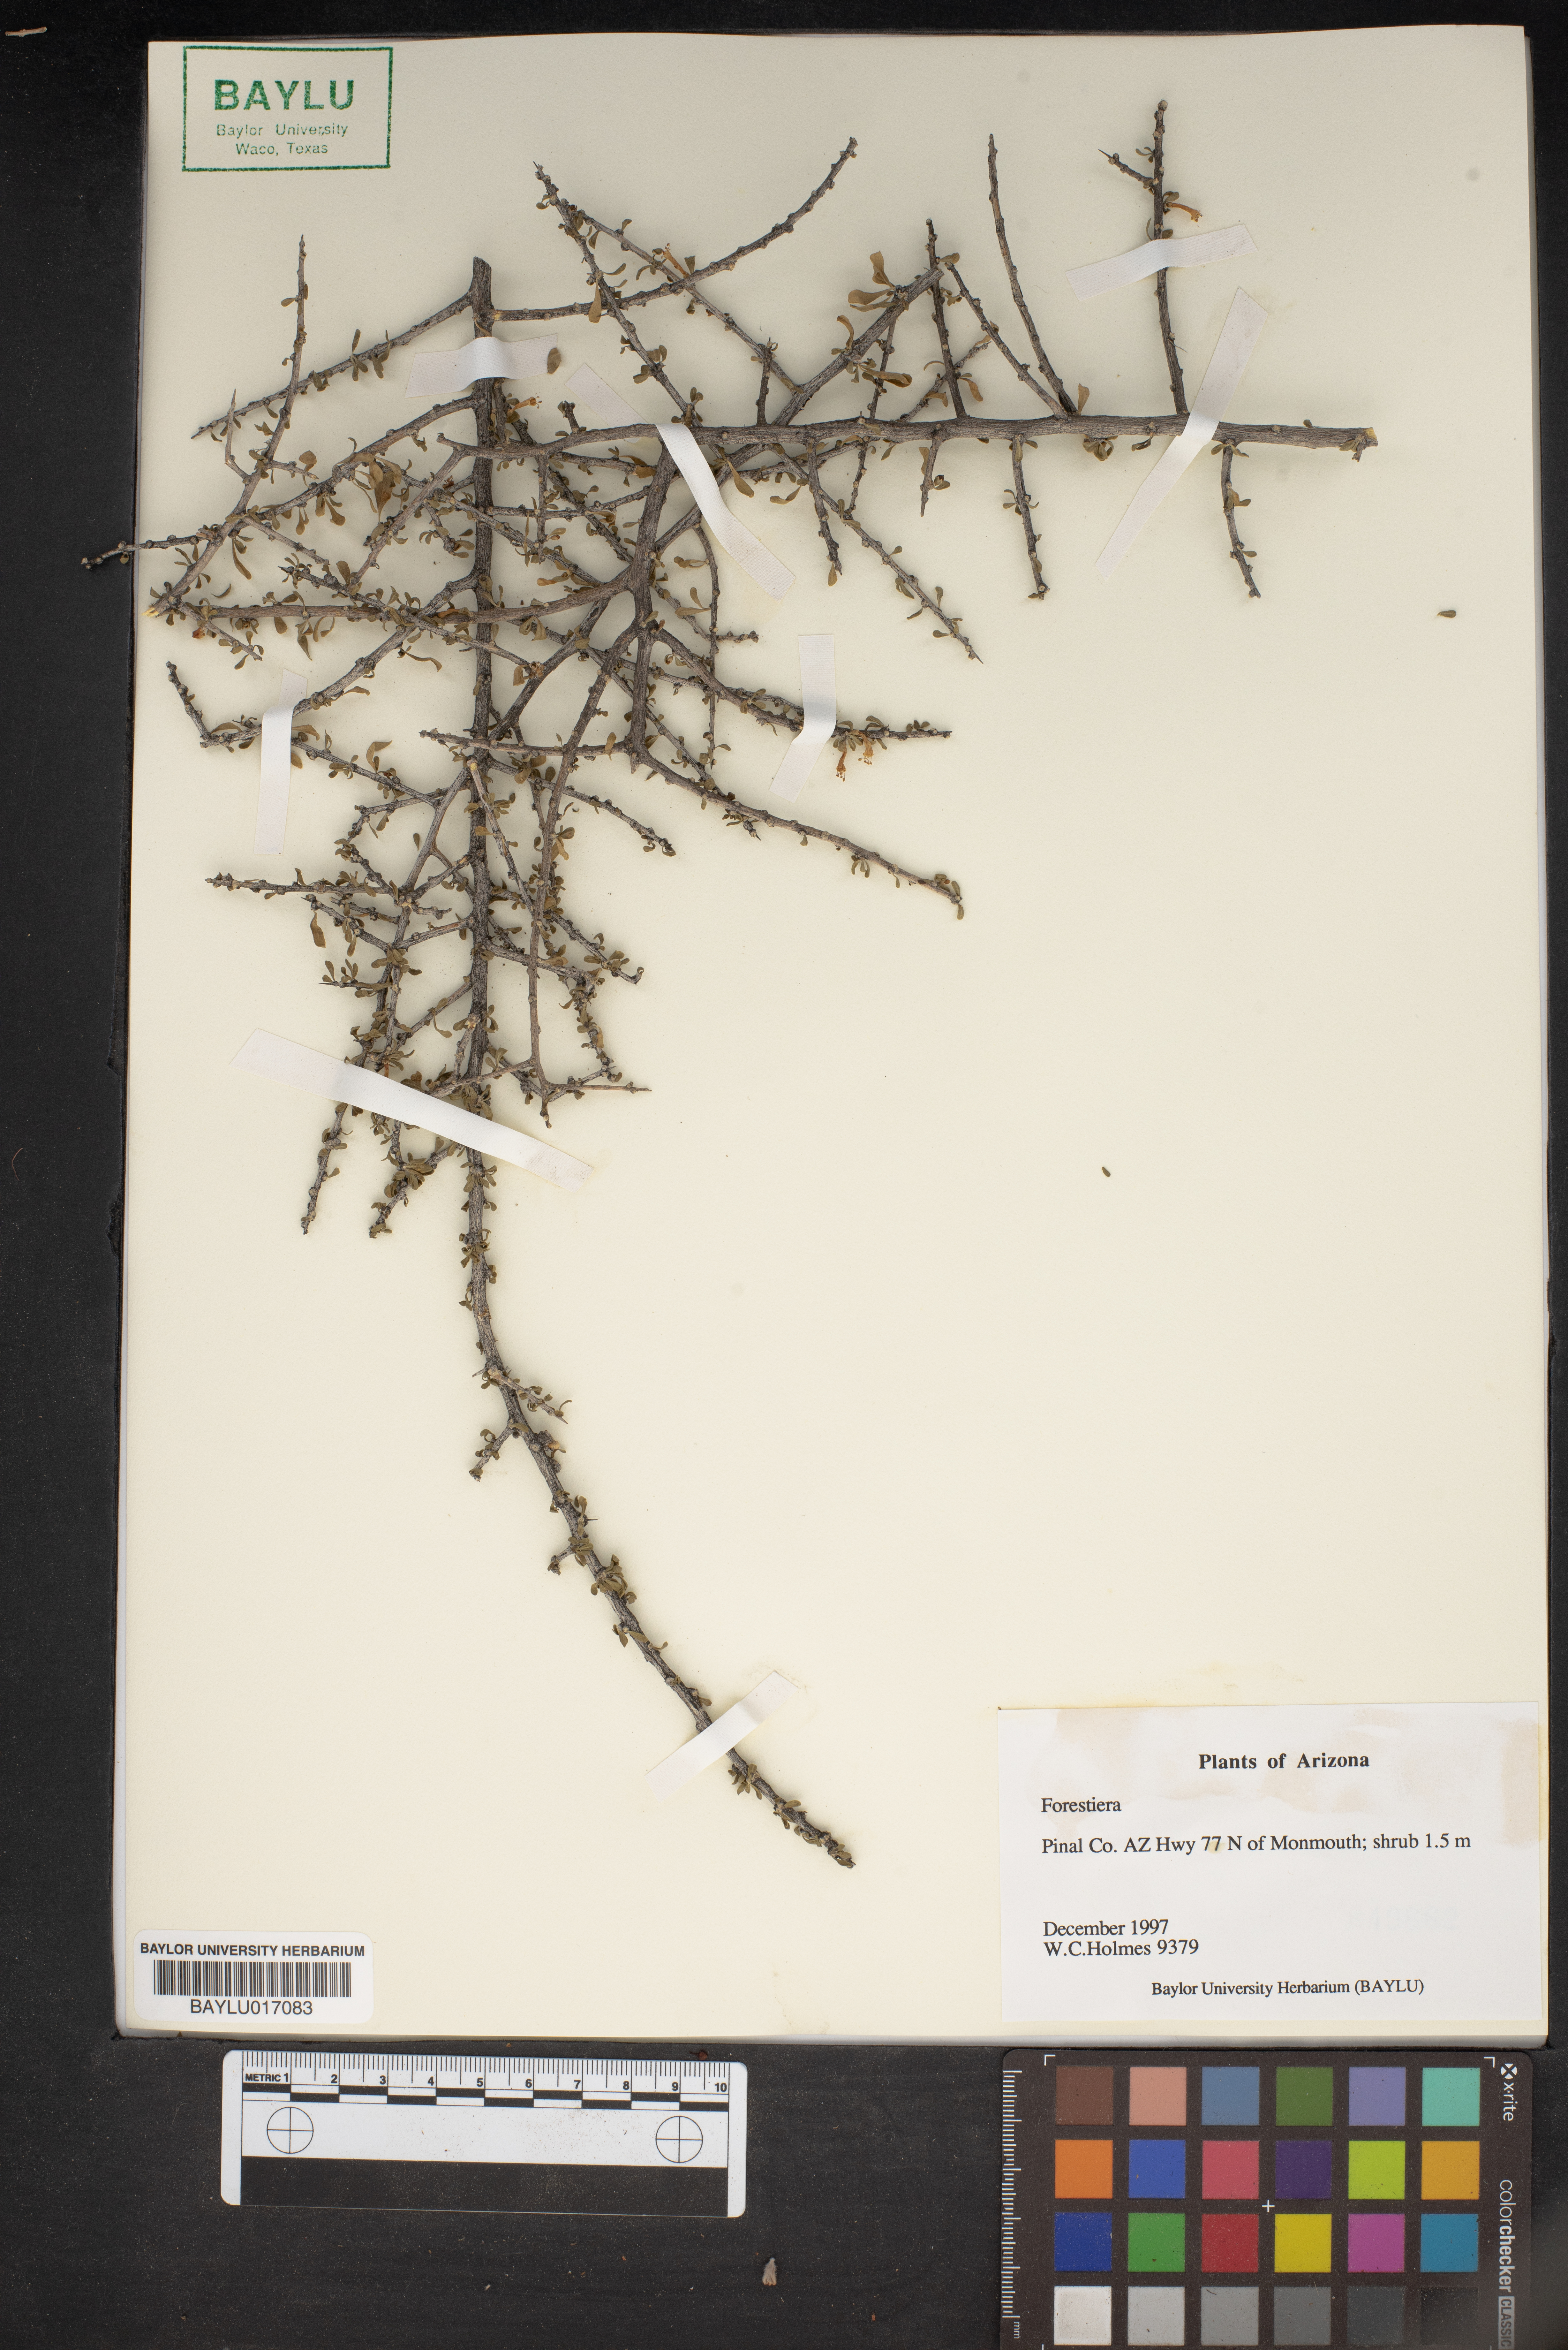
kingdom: Plantae
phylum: Tracheophyta
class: Magnoliopsida
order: Lamiales
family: Oleaceae
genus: Forestiera
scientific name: Forestiera
